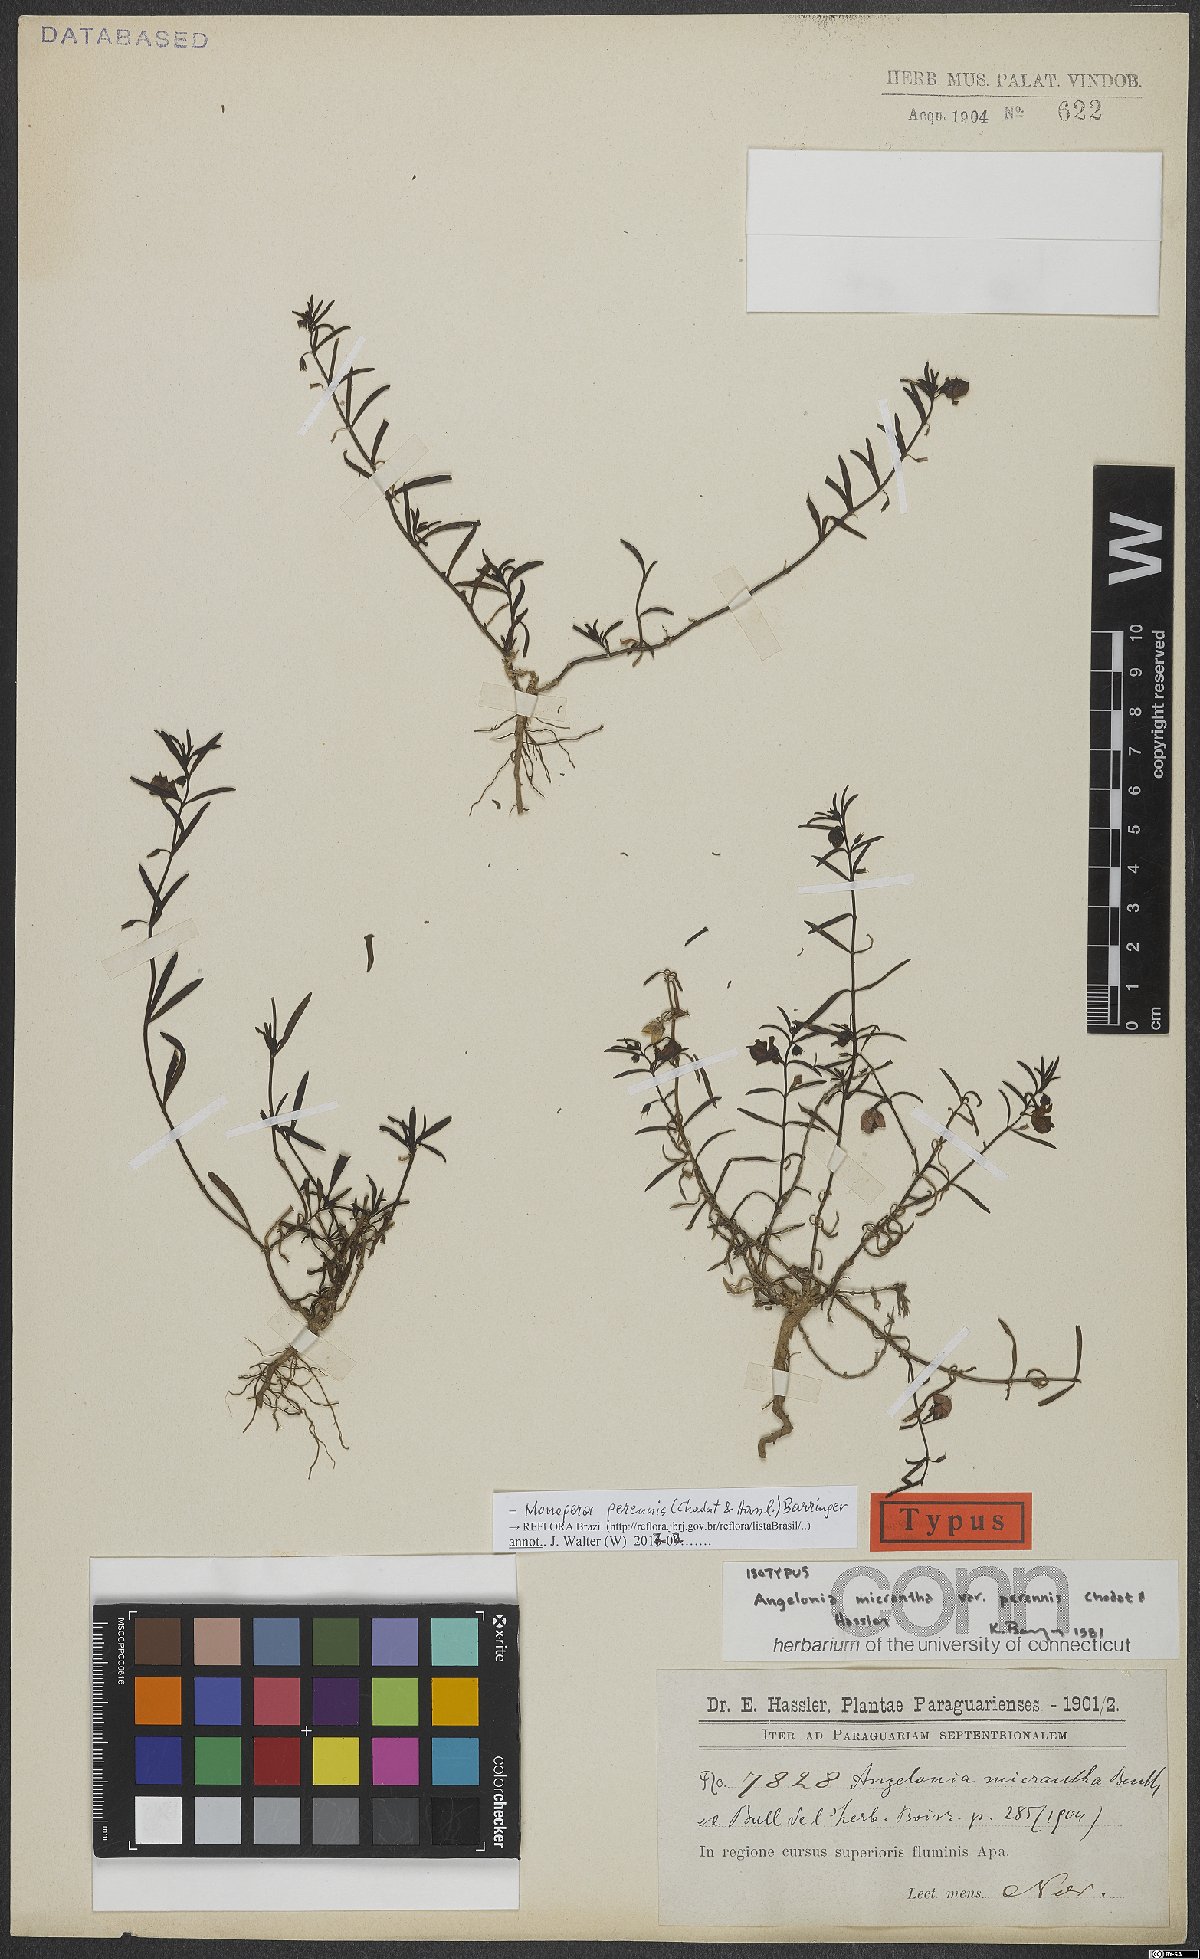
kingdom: Plantae
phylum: Tracheophyta
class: Magnoliopsida
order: Lamiales
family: Plantaginaceae
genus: Angelonia
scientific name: Angelonia perennis
